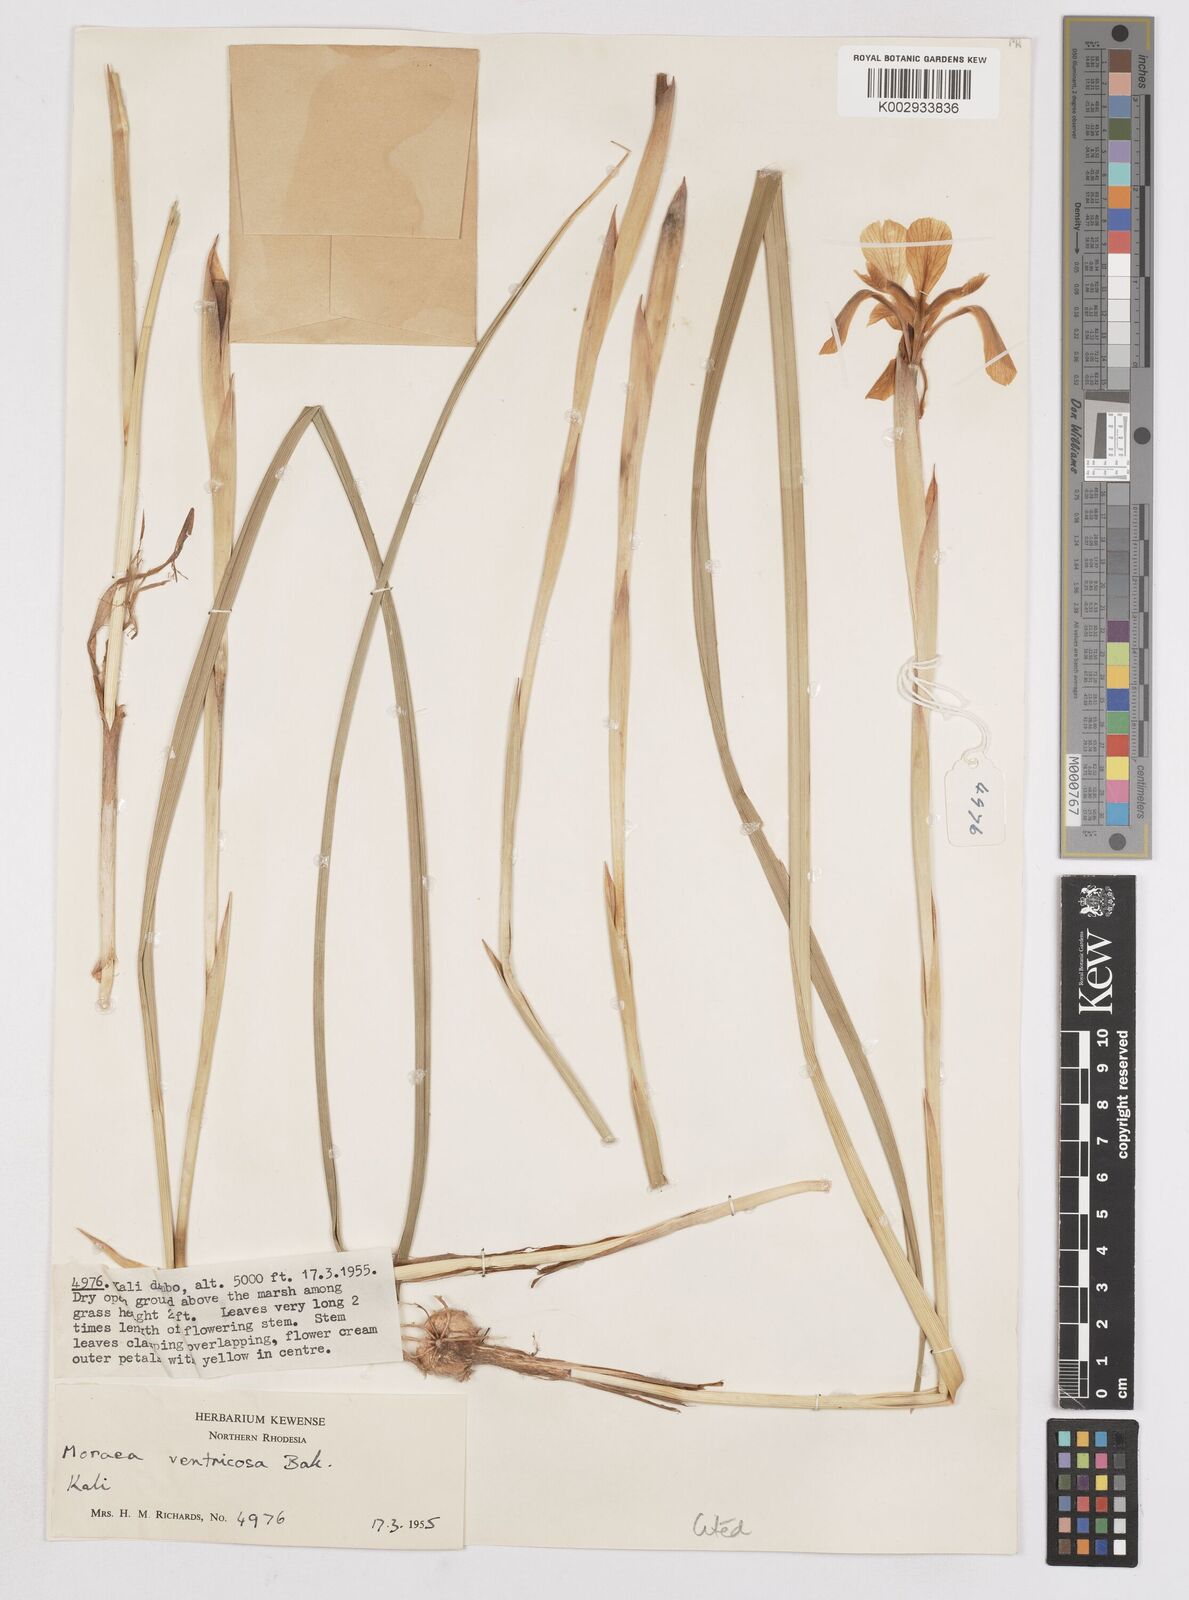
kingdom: Plantae
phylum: Tracheophyta
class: Liliopsida
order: Asparagales
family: Iridaceae
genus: Moraea
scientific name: Moraea ventricosa
